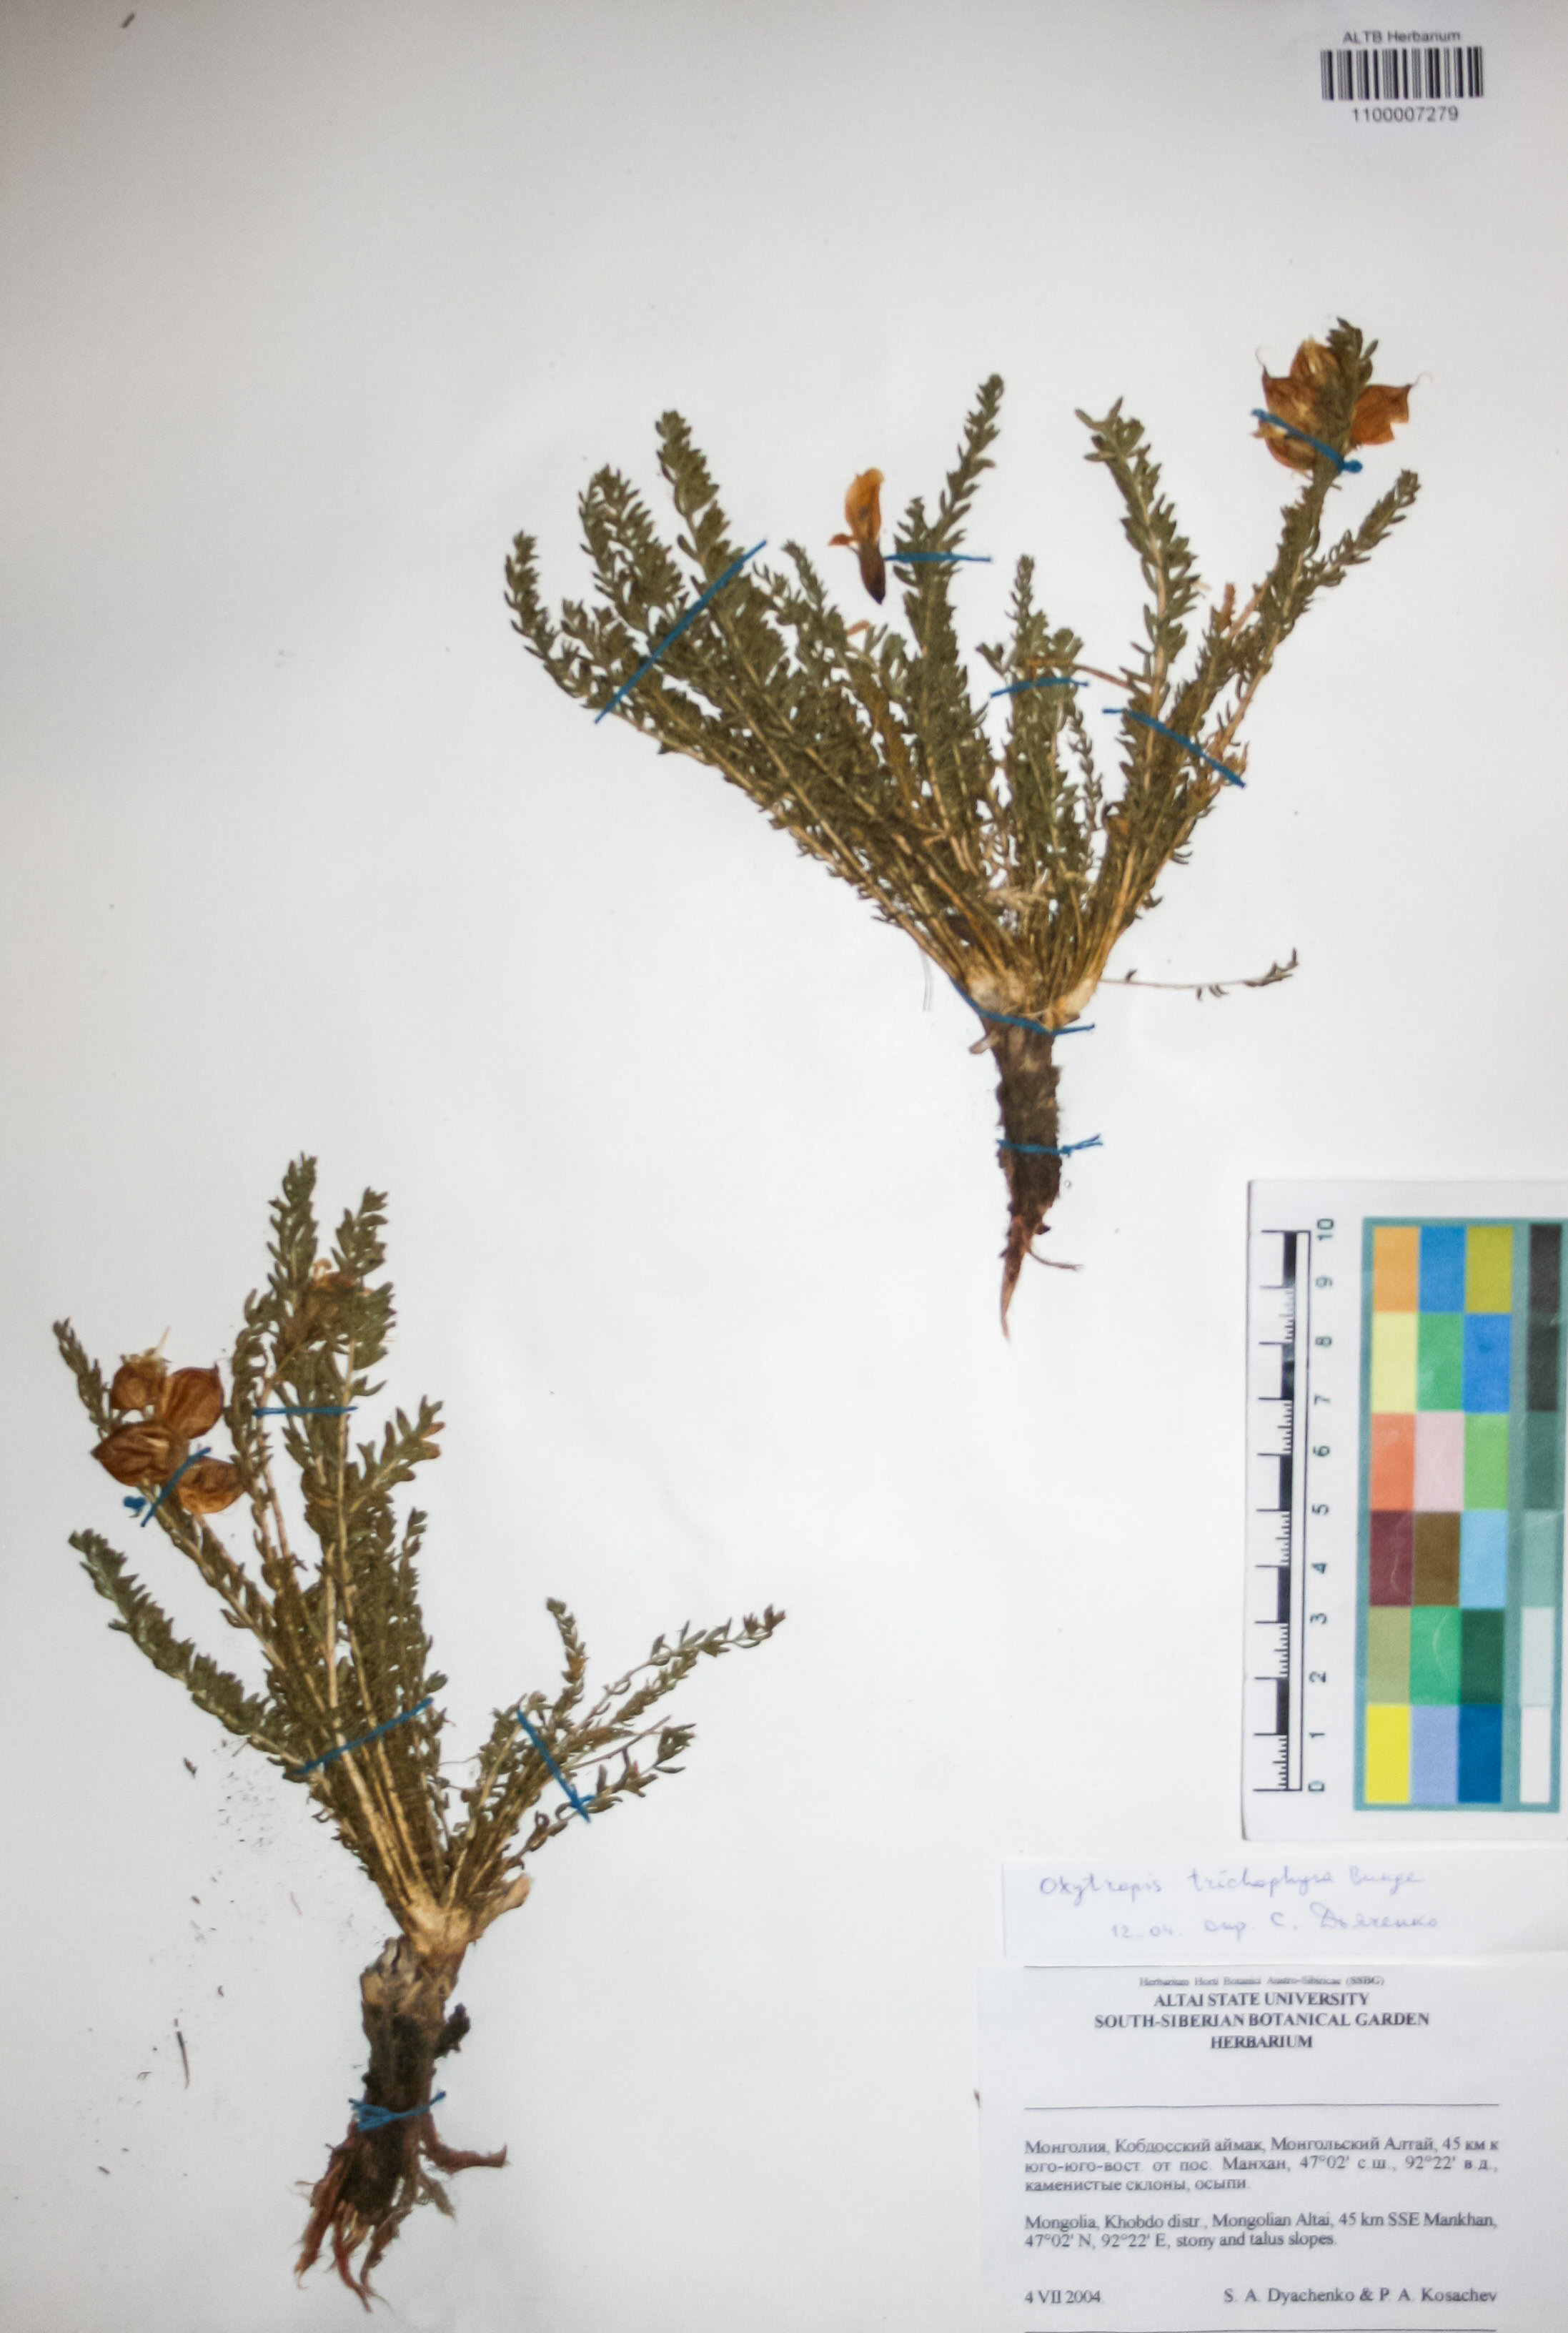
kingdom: Plantae
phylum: Tracheophyta
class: Magnoliopsida
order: Fabales
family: Fabaceae
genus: Oxytropis
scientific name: Oxytropis trichophysa
